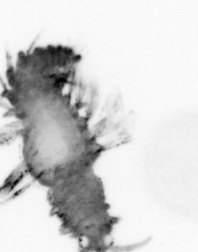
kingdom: Animalia
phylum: Annelida
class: Polychaeta
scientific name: Polychaeta
